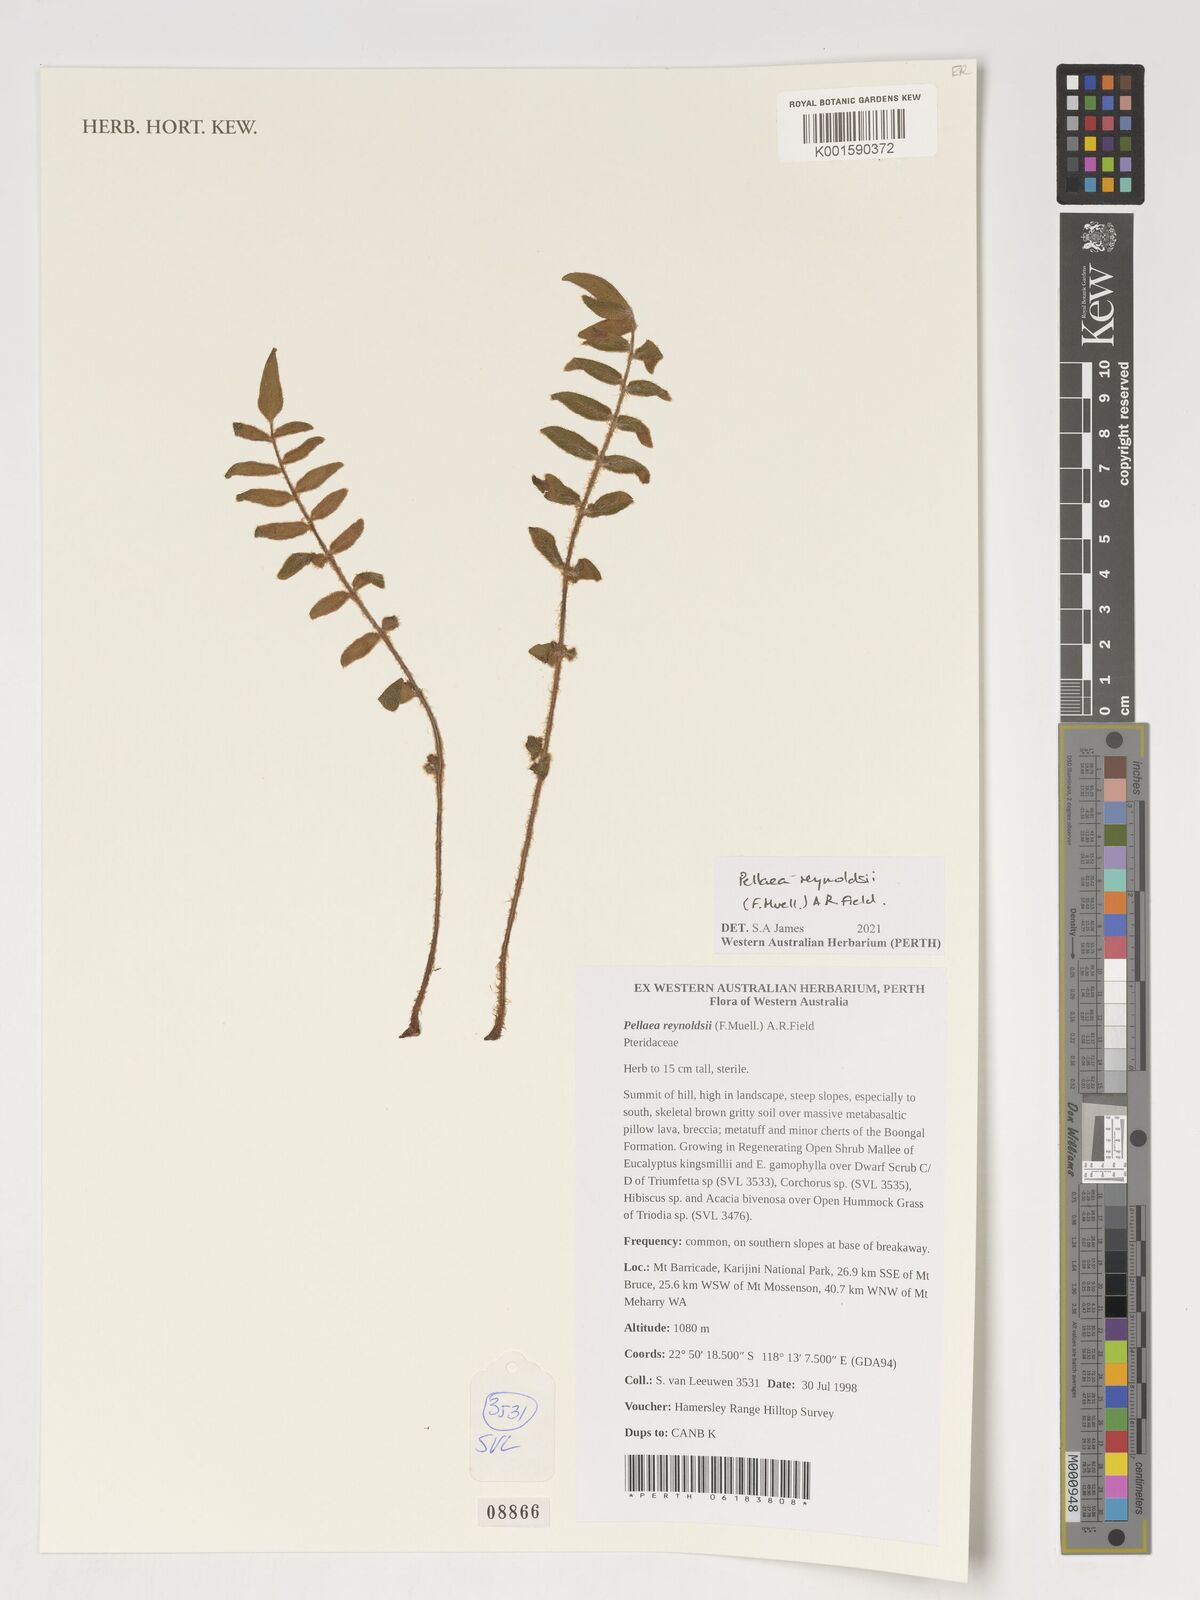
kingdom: Plantae
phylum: Tracheophyta
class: Polypodiopsida
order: Polypodiales
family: Pteridaceae
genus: Pellaea
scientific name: Pellaea
